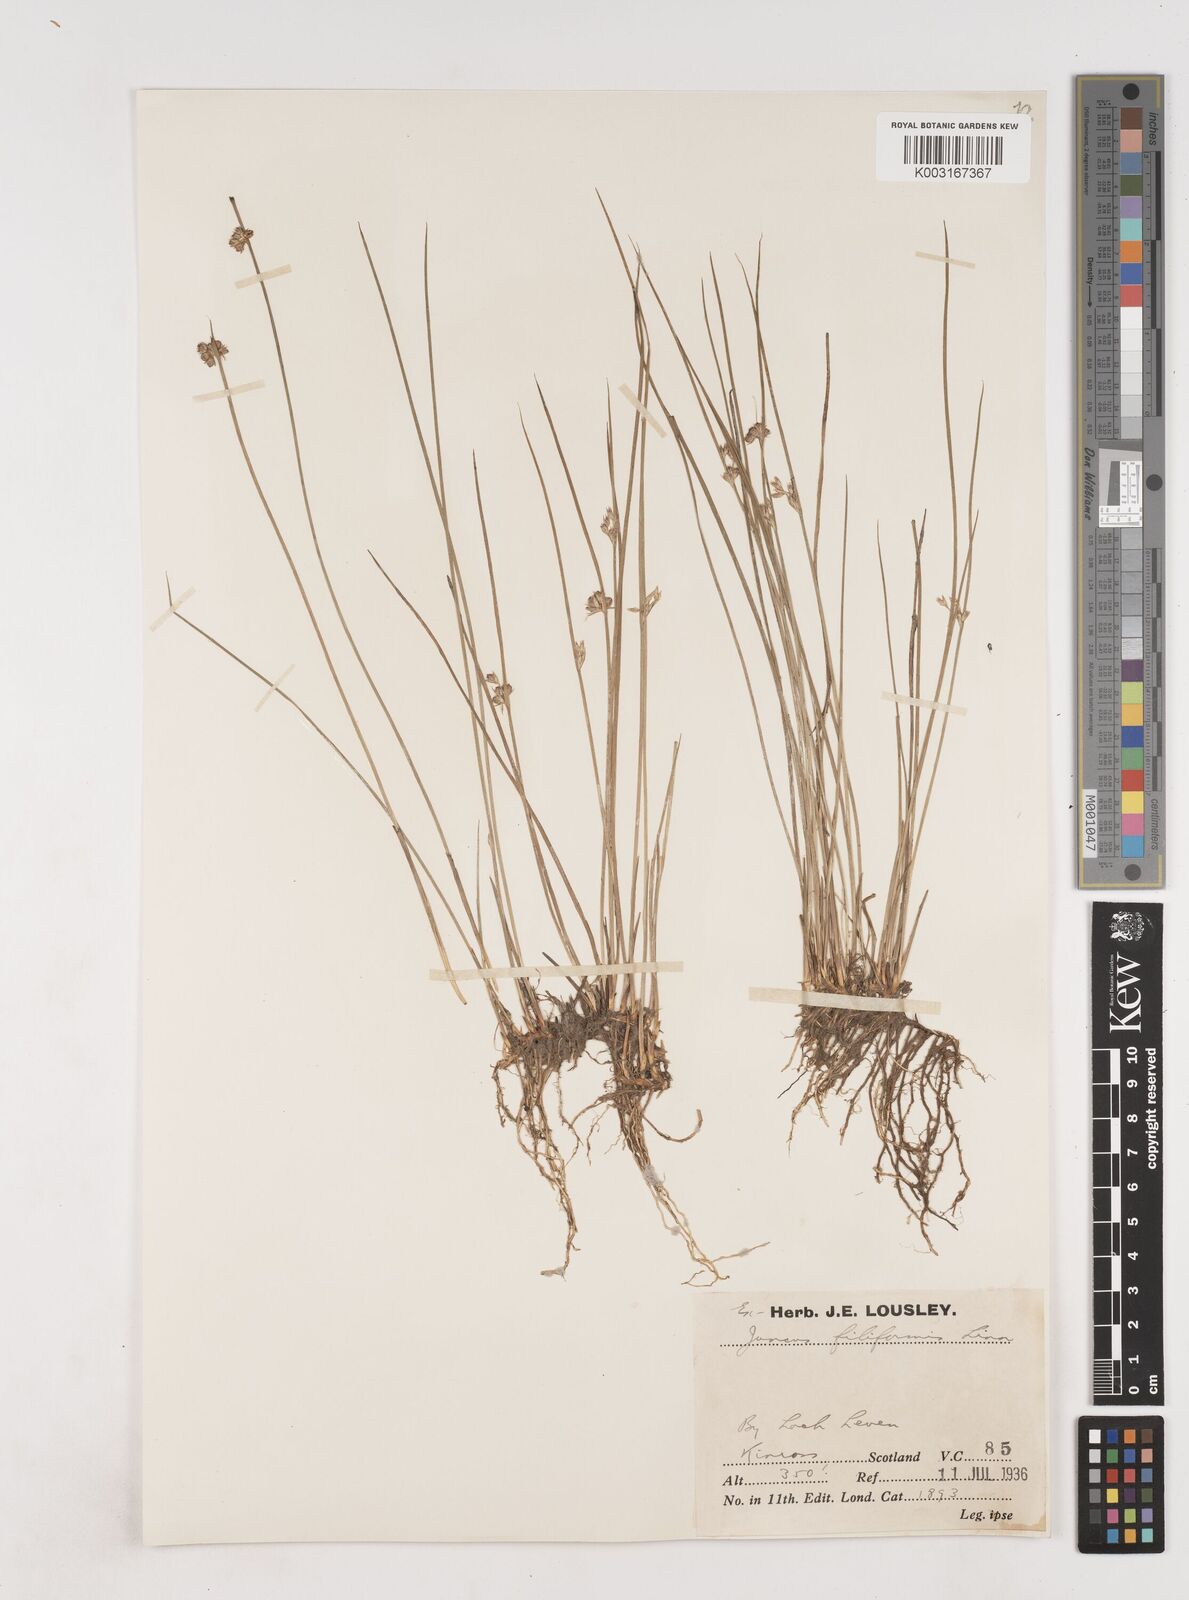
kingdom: Plantae
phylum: Tracheophyta
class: Liliopsida
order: Poales
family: Juncaceae
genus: Juncus
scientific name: Juncus filiformis
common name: Thread rush
